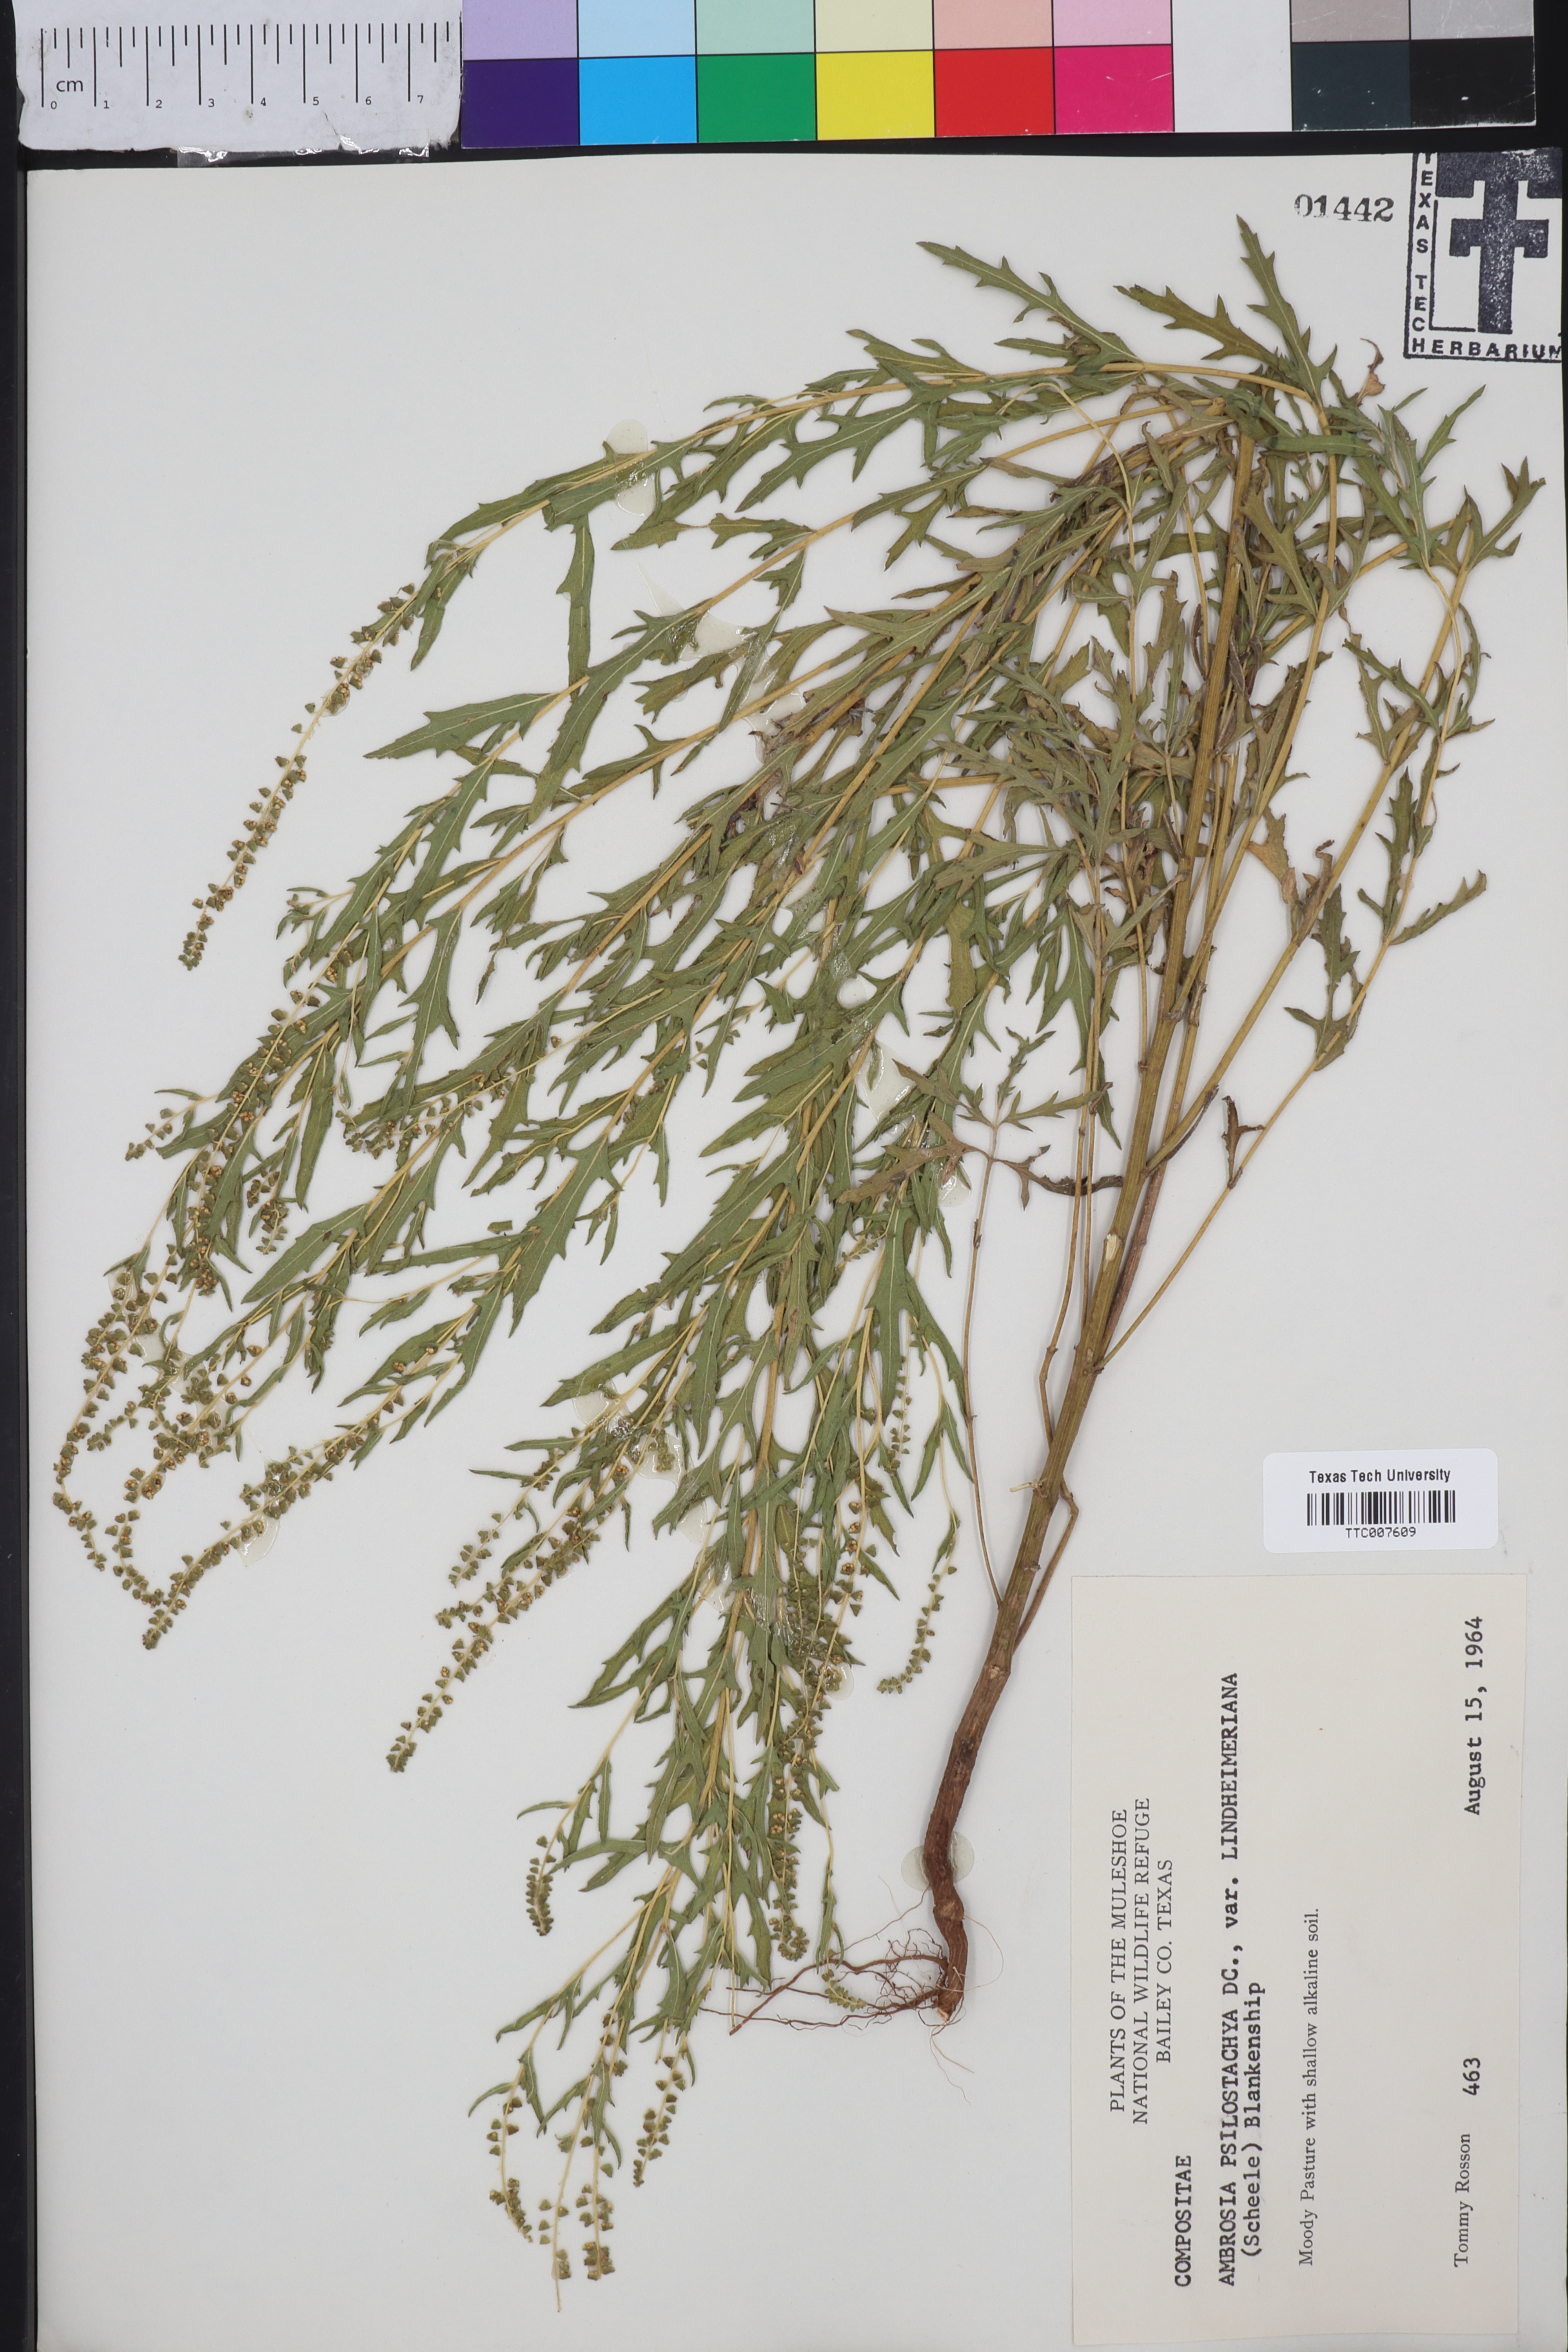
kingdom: Plantae
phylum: Tracheophyta
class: Magnoliopsida
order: Asterales
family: Asteraceae
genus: Ambrosia
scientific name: Ambrosia psilostachya
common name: Perennial ragweed
